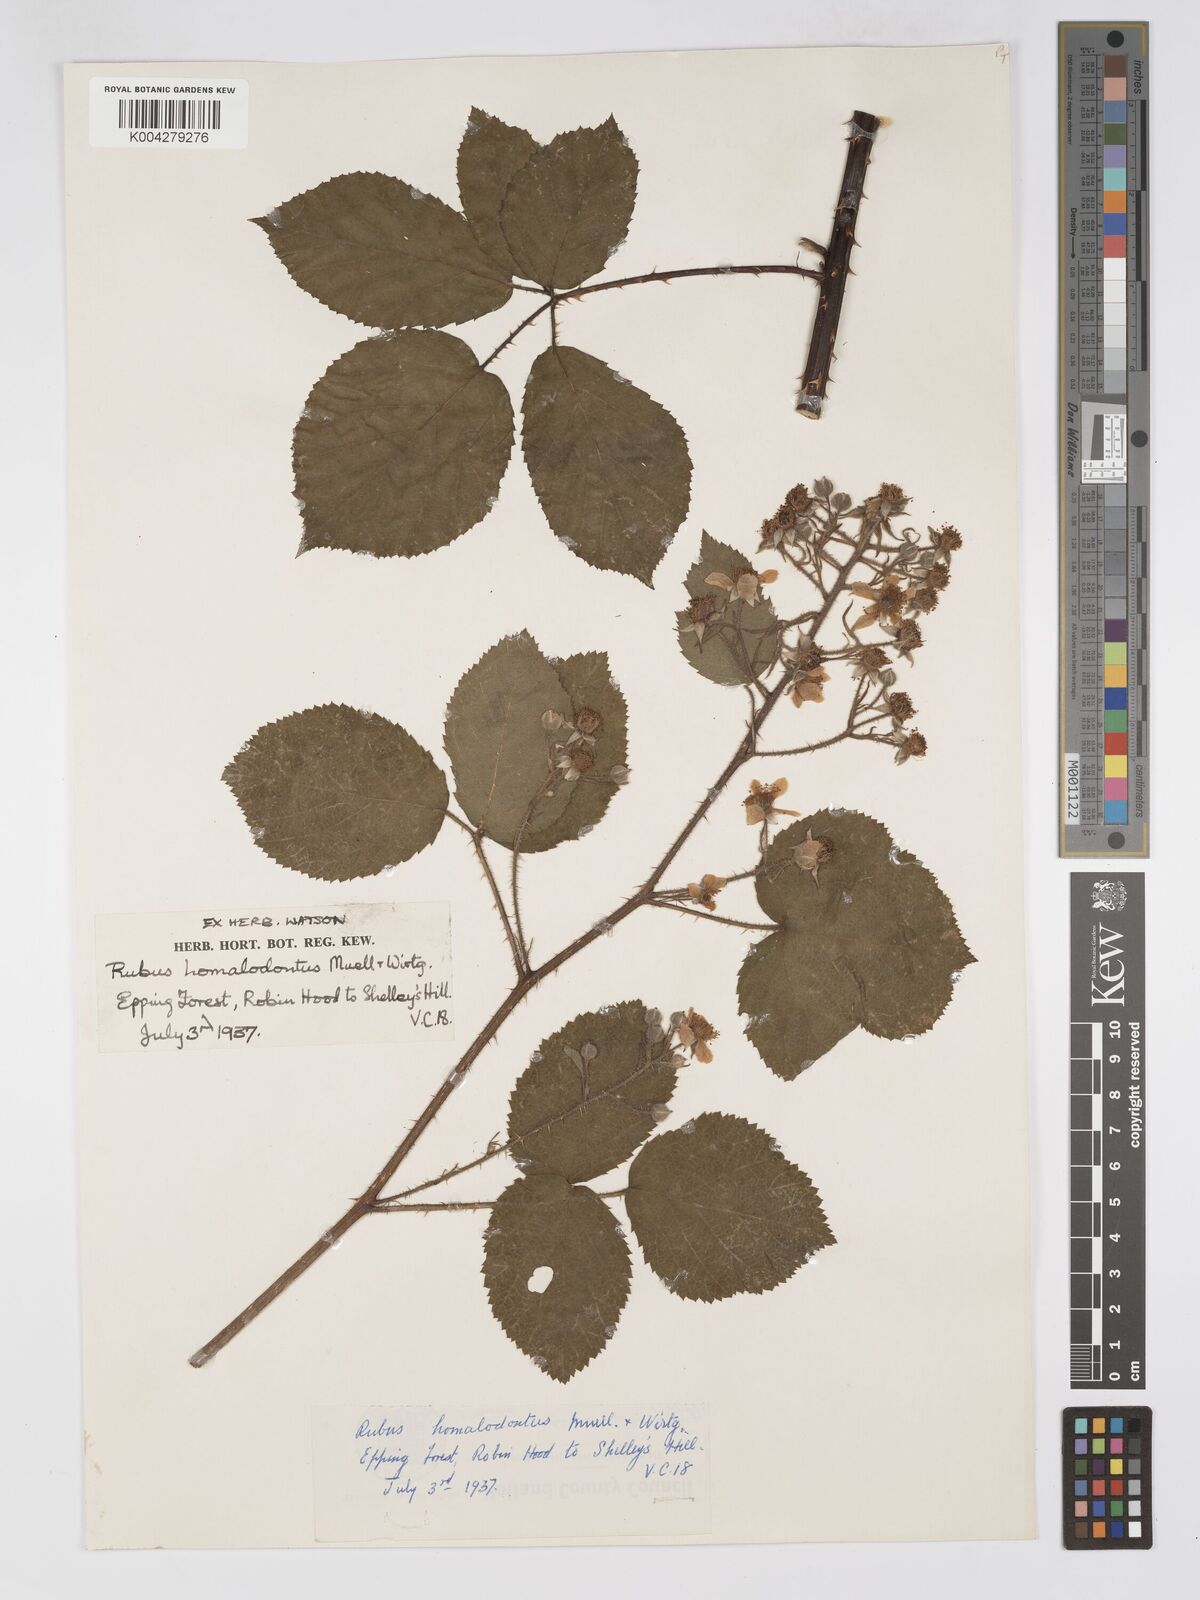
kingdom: Plantae
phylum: Tracheophyta
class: Magnoliopsida
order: Rosales
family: Rosaceae
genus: Rubus
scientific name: Rubus
